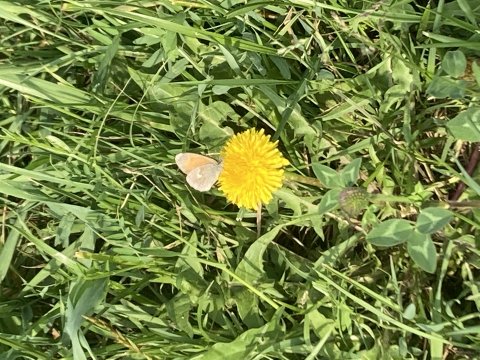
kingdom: Animalia
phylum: Arthropoda
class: Insecta
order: Lepidoptera
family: Nymphalidae
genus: Coenonympha
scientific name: Coenonympha tullia
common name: Large Heath
